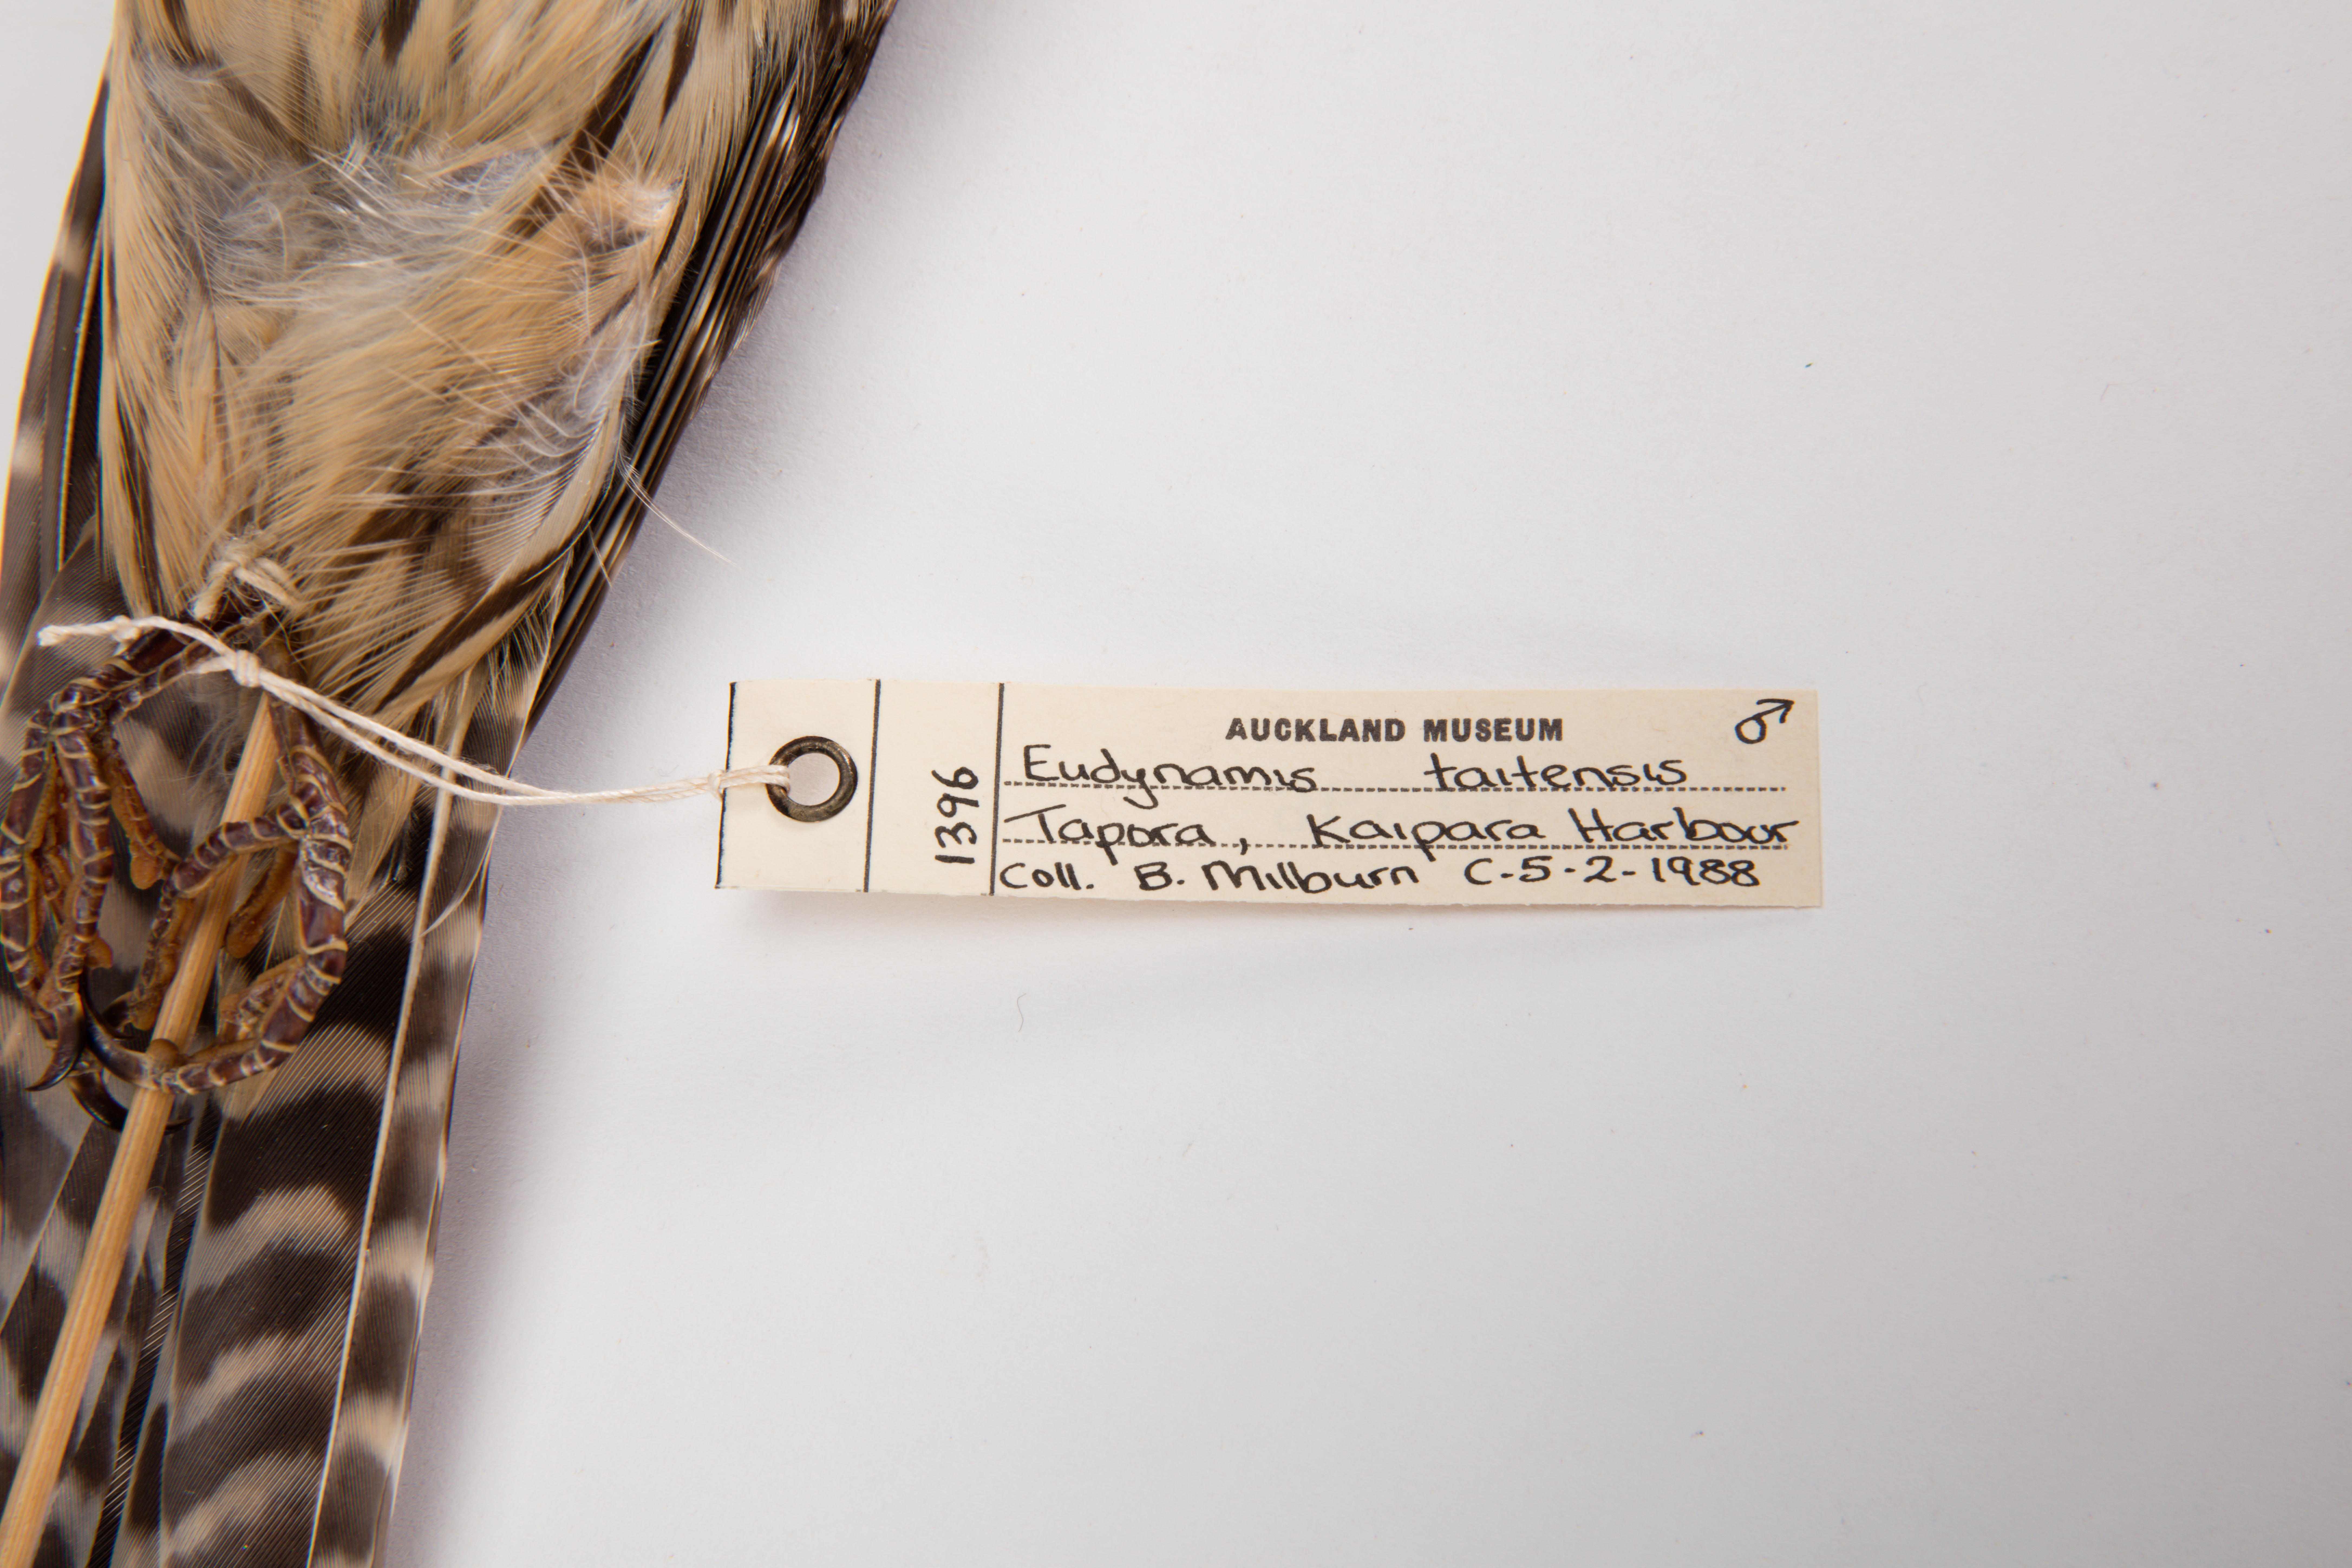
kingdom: Animalia
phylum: Chordata
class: Aves
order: Cuculiformes
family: Cuculidae
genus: Urodynamis
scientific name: Urodynamis taitensis
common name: Long-tailed koel
